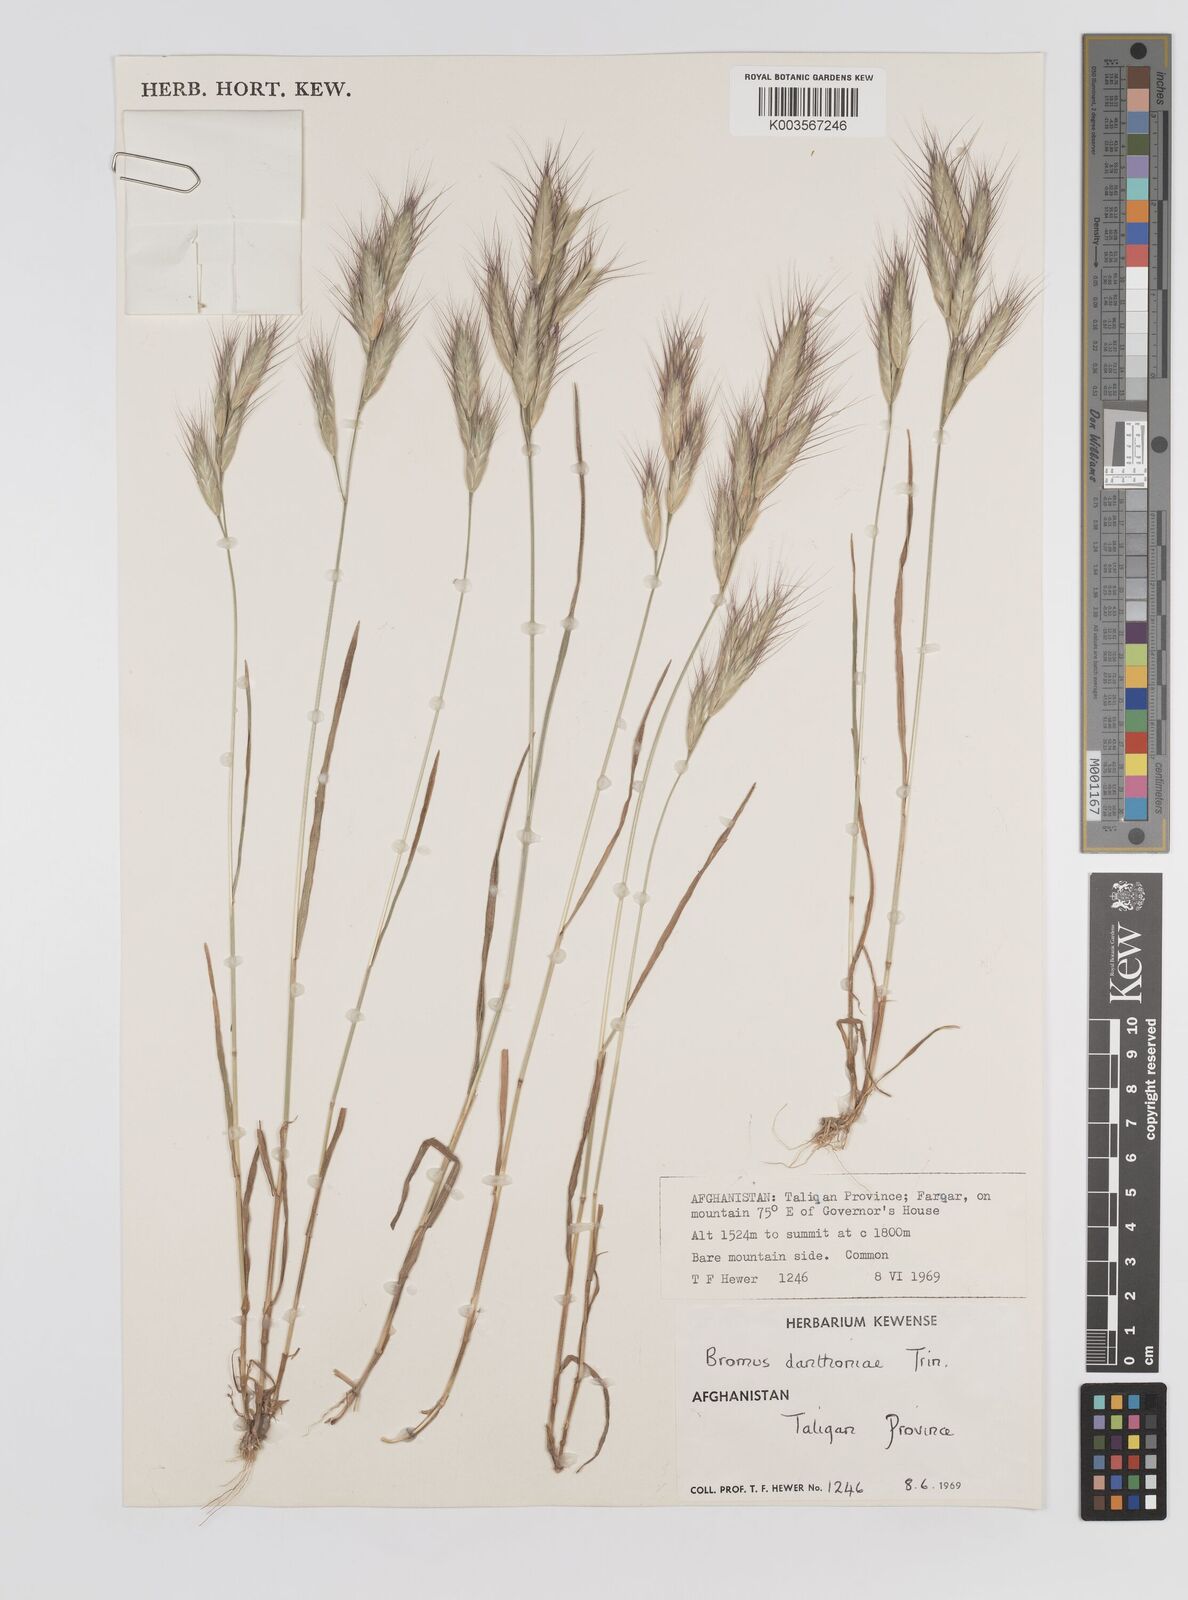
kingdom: Plantae
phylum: Tracheophyta
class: Liliopsida
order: Poales
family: Poaceae
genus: Bromus
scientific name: Bromus danthoniae
